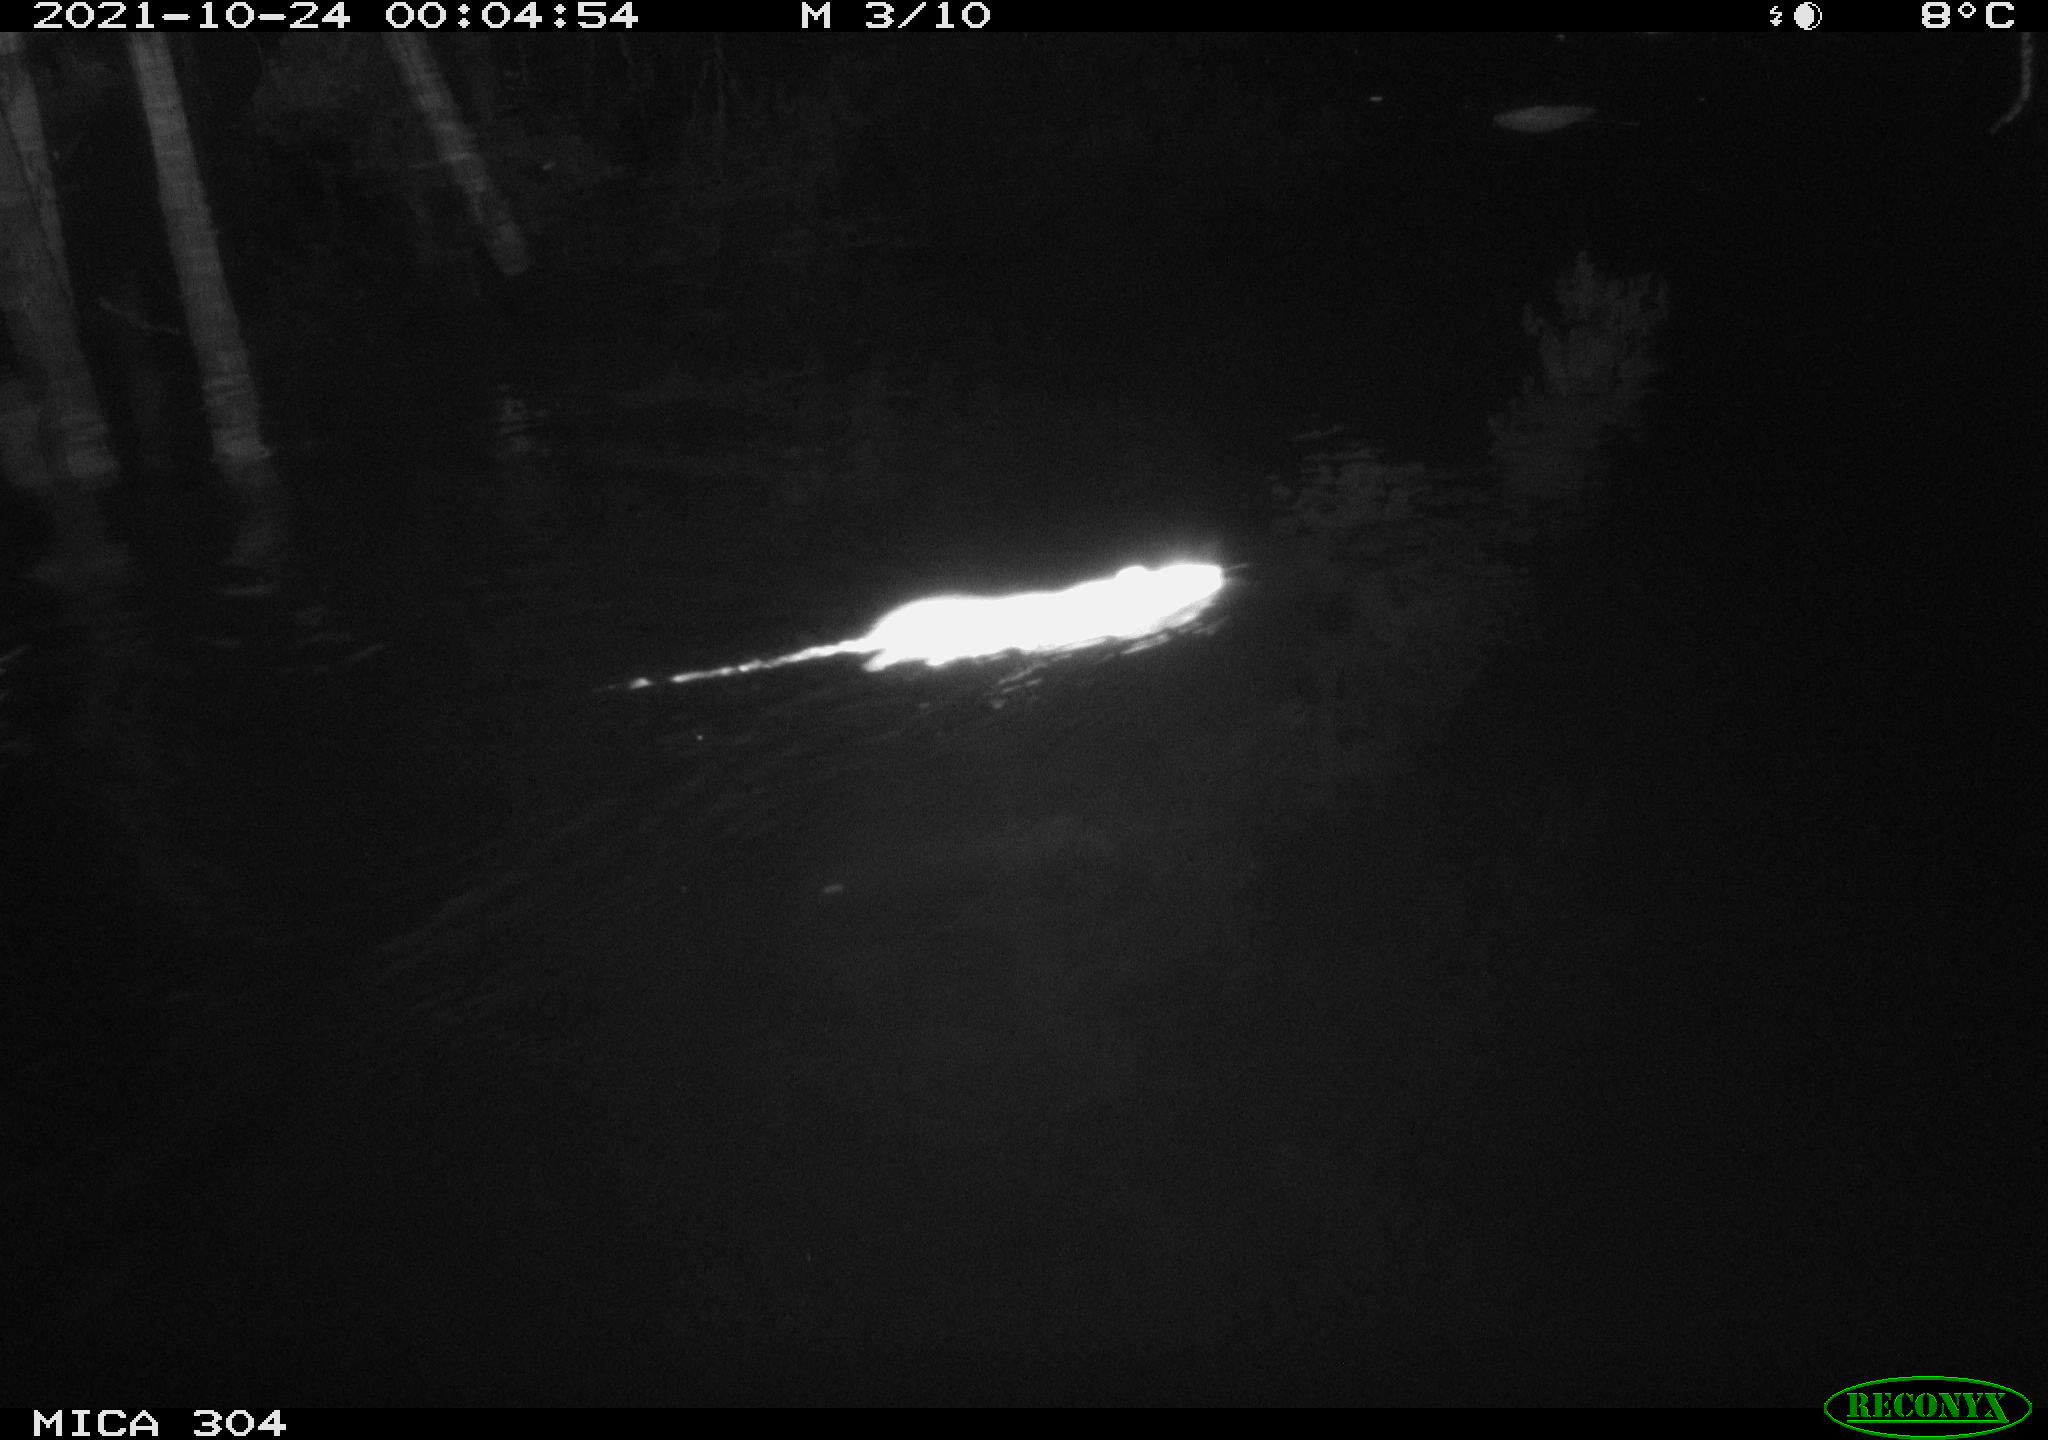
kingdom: Animalia
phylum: Chordata
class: Mammalia
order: Rodentia
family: Muridae
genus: Rattus
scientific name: Rattus norvegicus
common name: Brown rat
